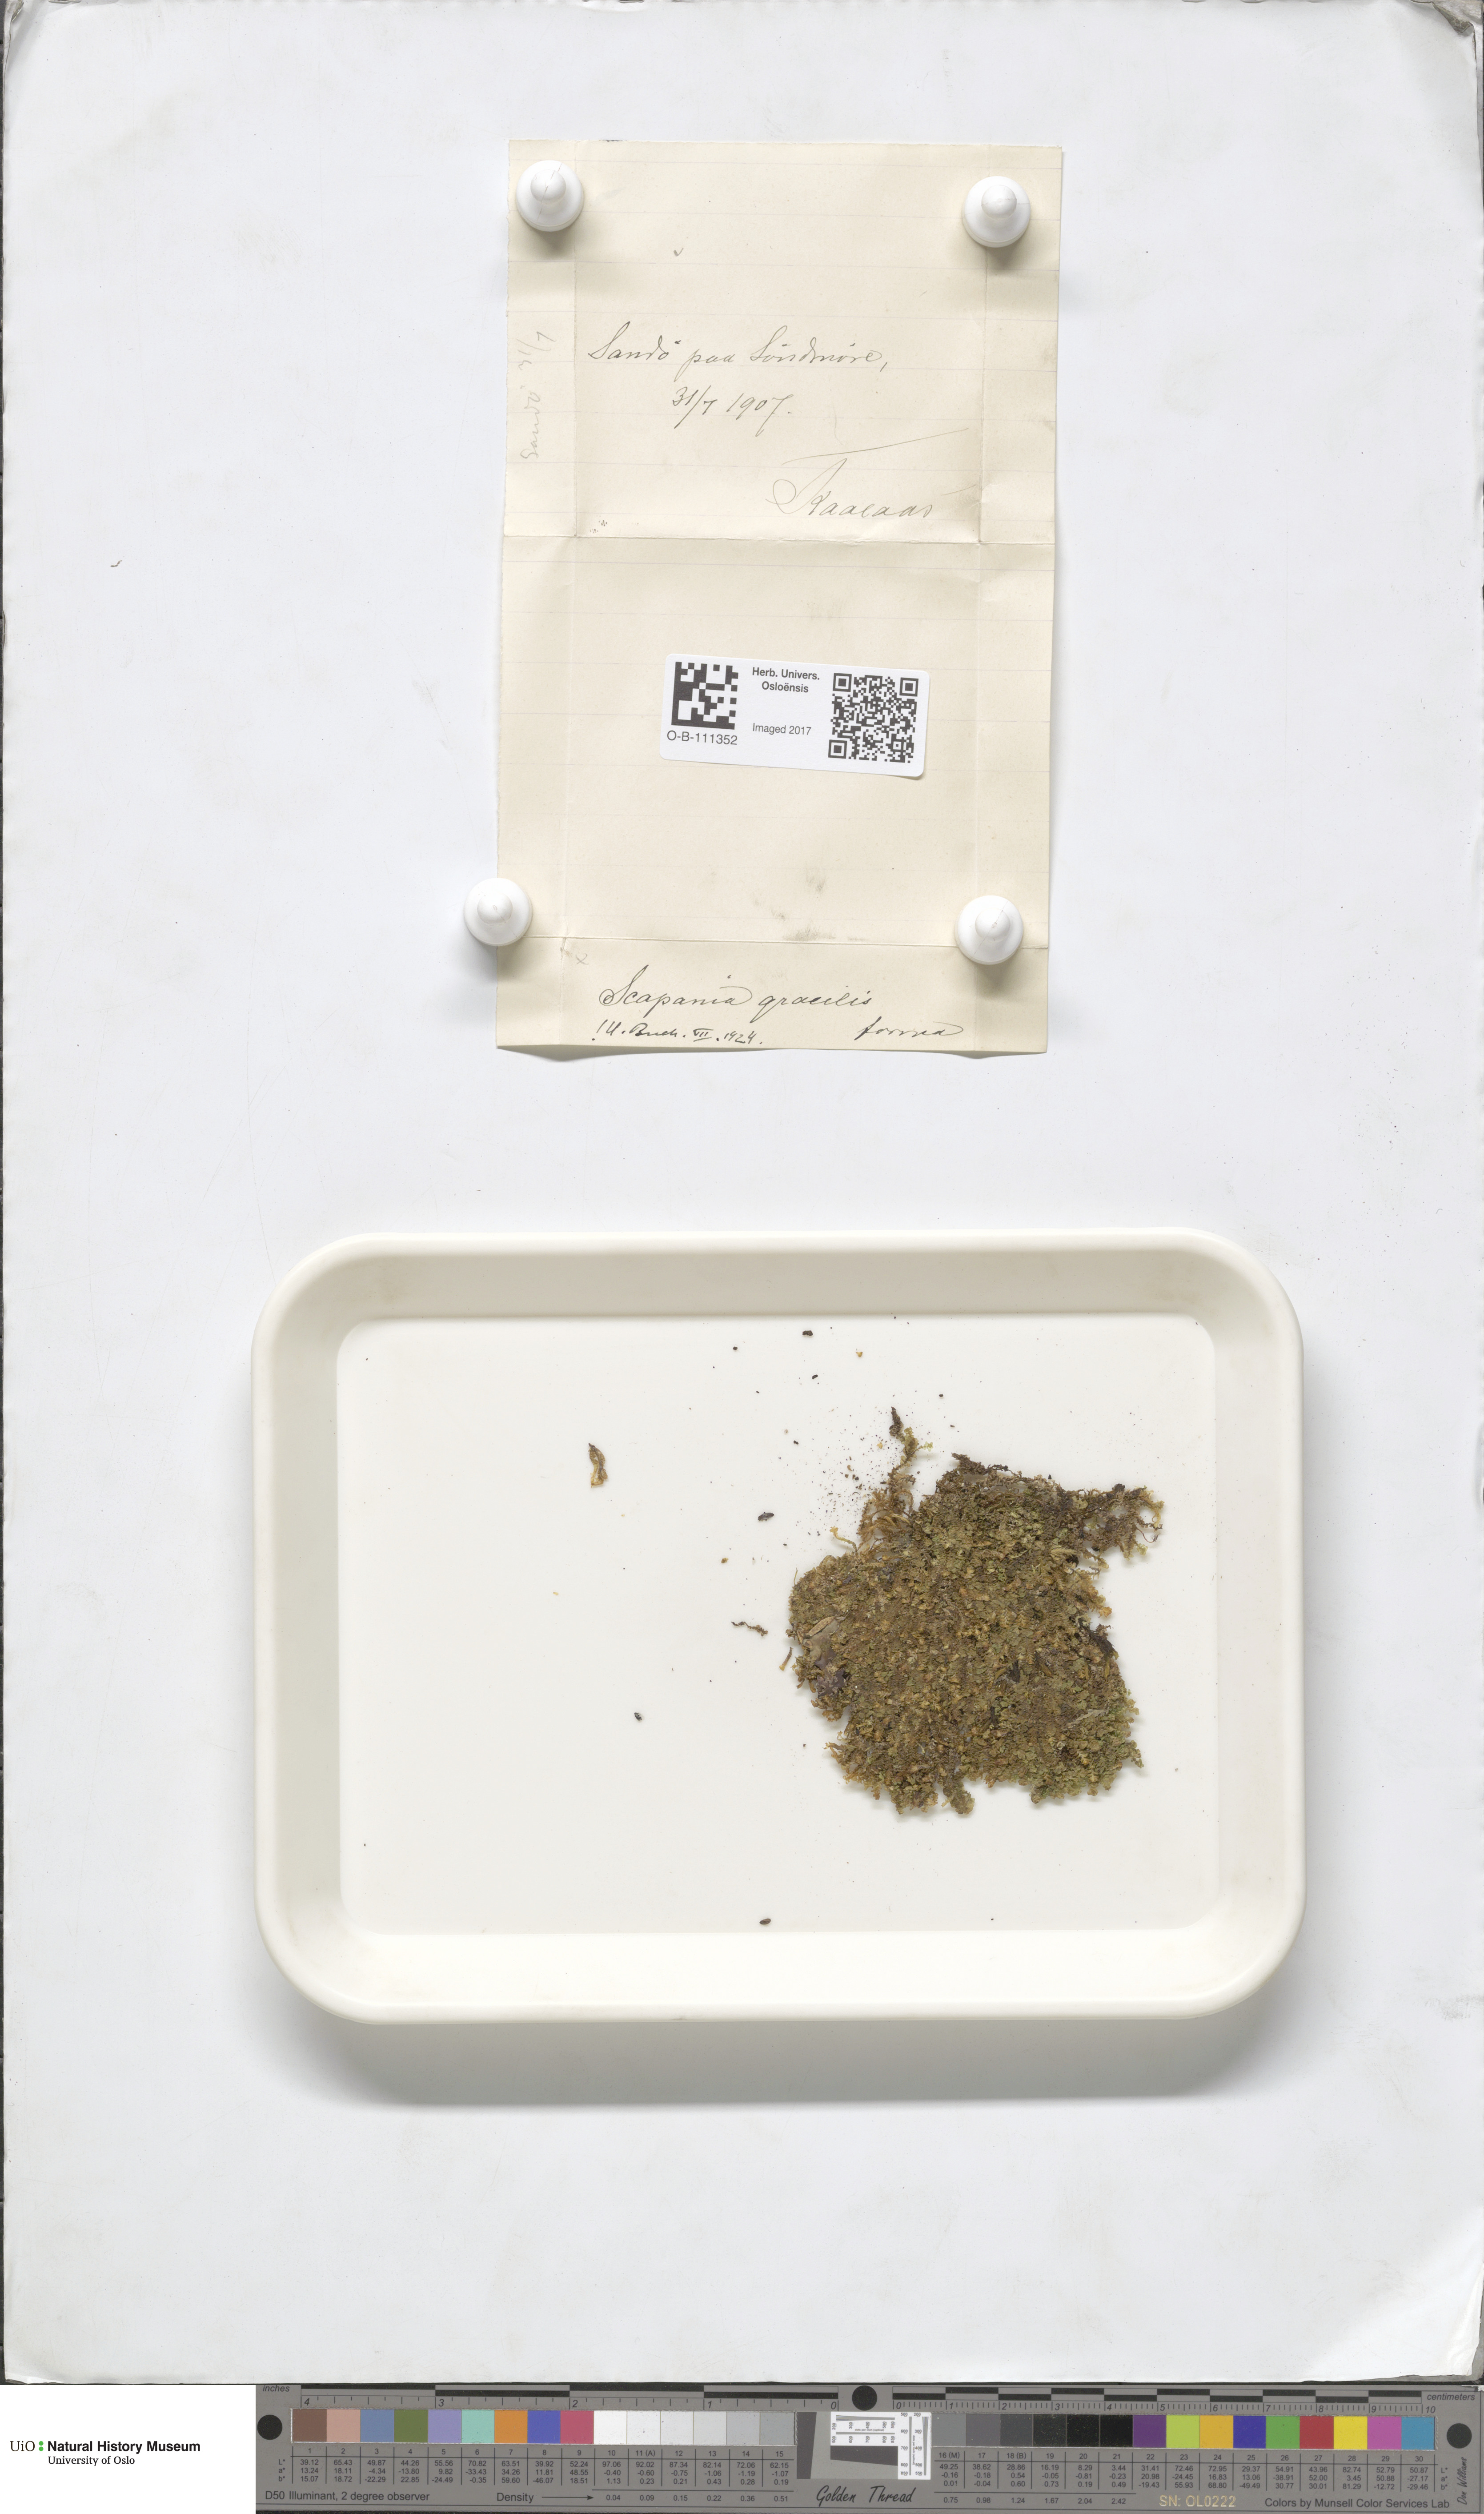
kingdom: Plantae
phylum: Marchantiophyta
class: Jungermanniopsida
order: Jungermanniales
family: Scapaniaceae
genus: Scapania
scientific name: Scapania gracilis
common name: Western earwort
